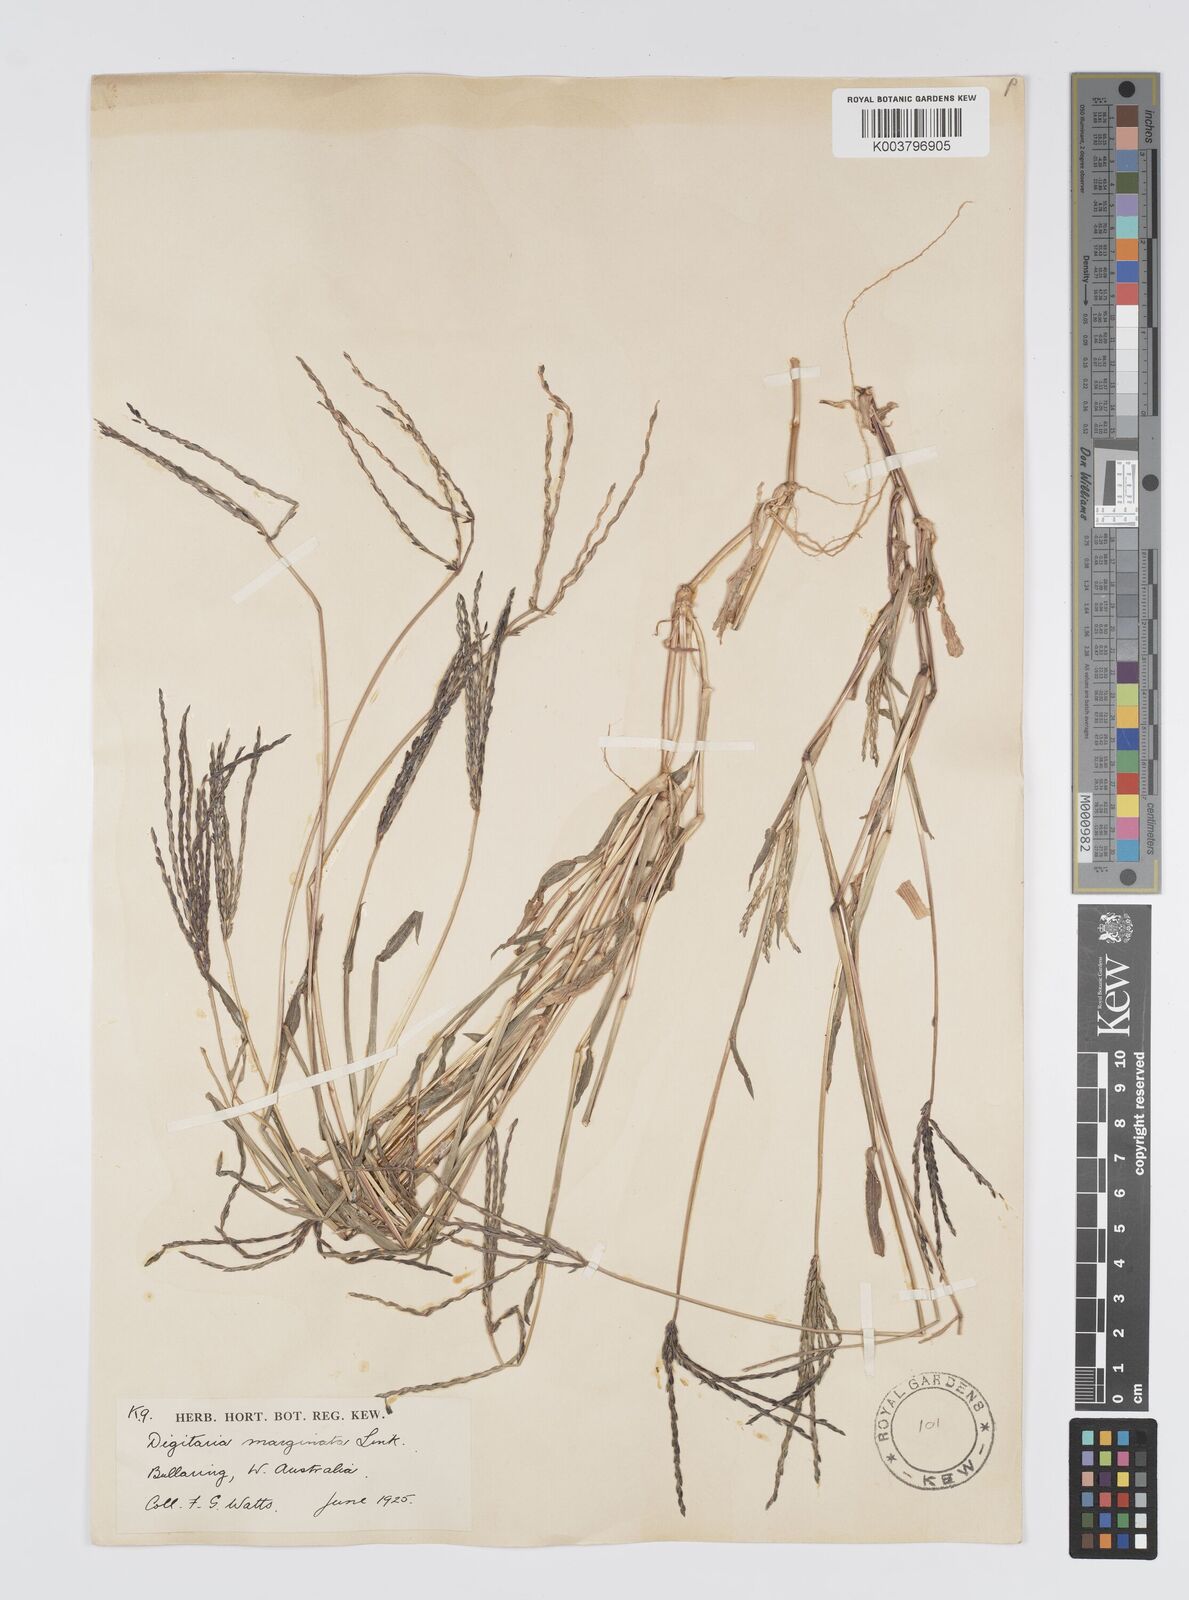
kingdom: Plantae
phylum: Tracheophyta
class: Liliopsida
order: Poales
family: Poaceae
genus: Digitaria
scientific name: Digitaria sanguinalis
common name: Hairy crabgrass
